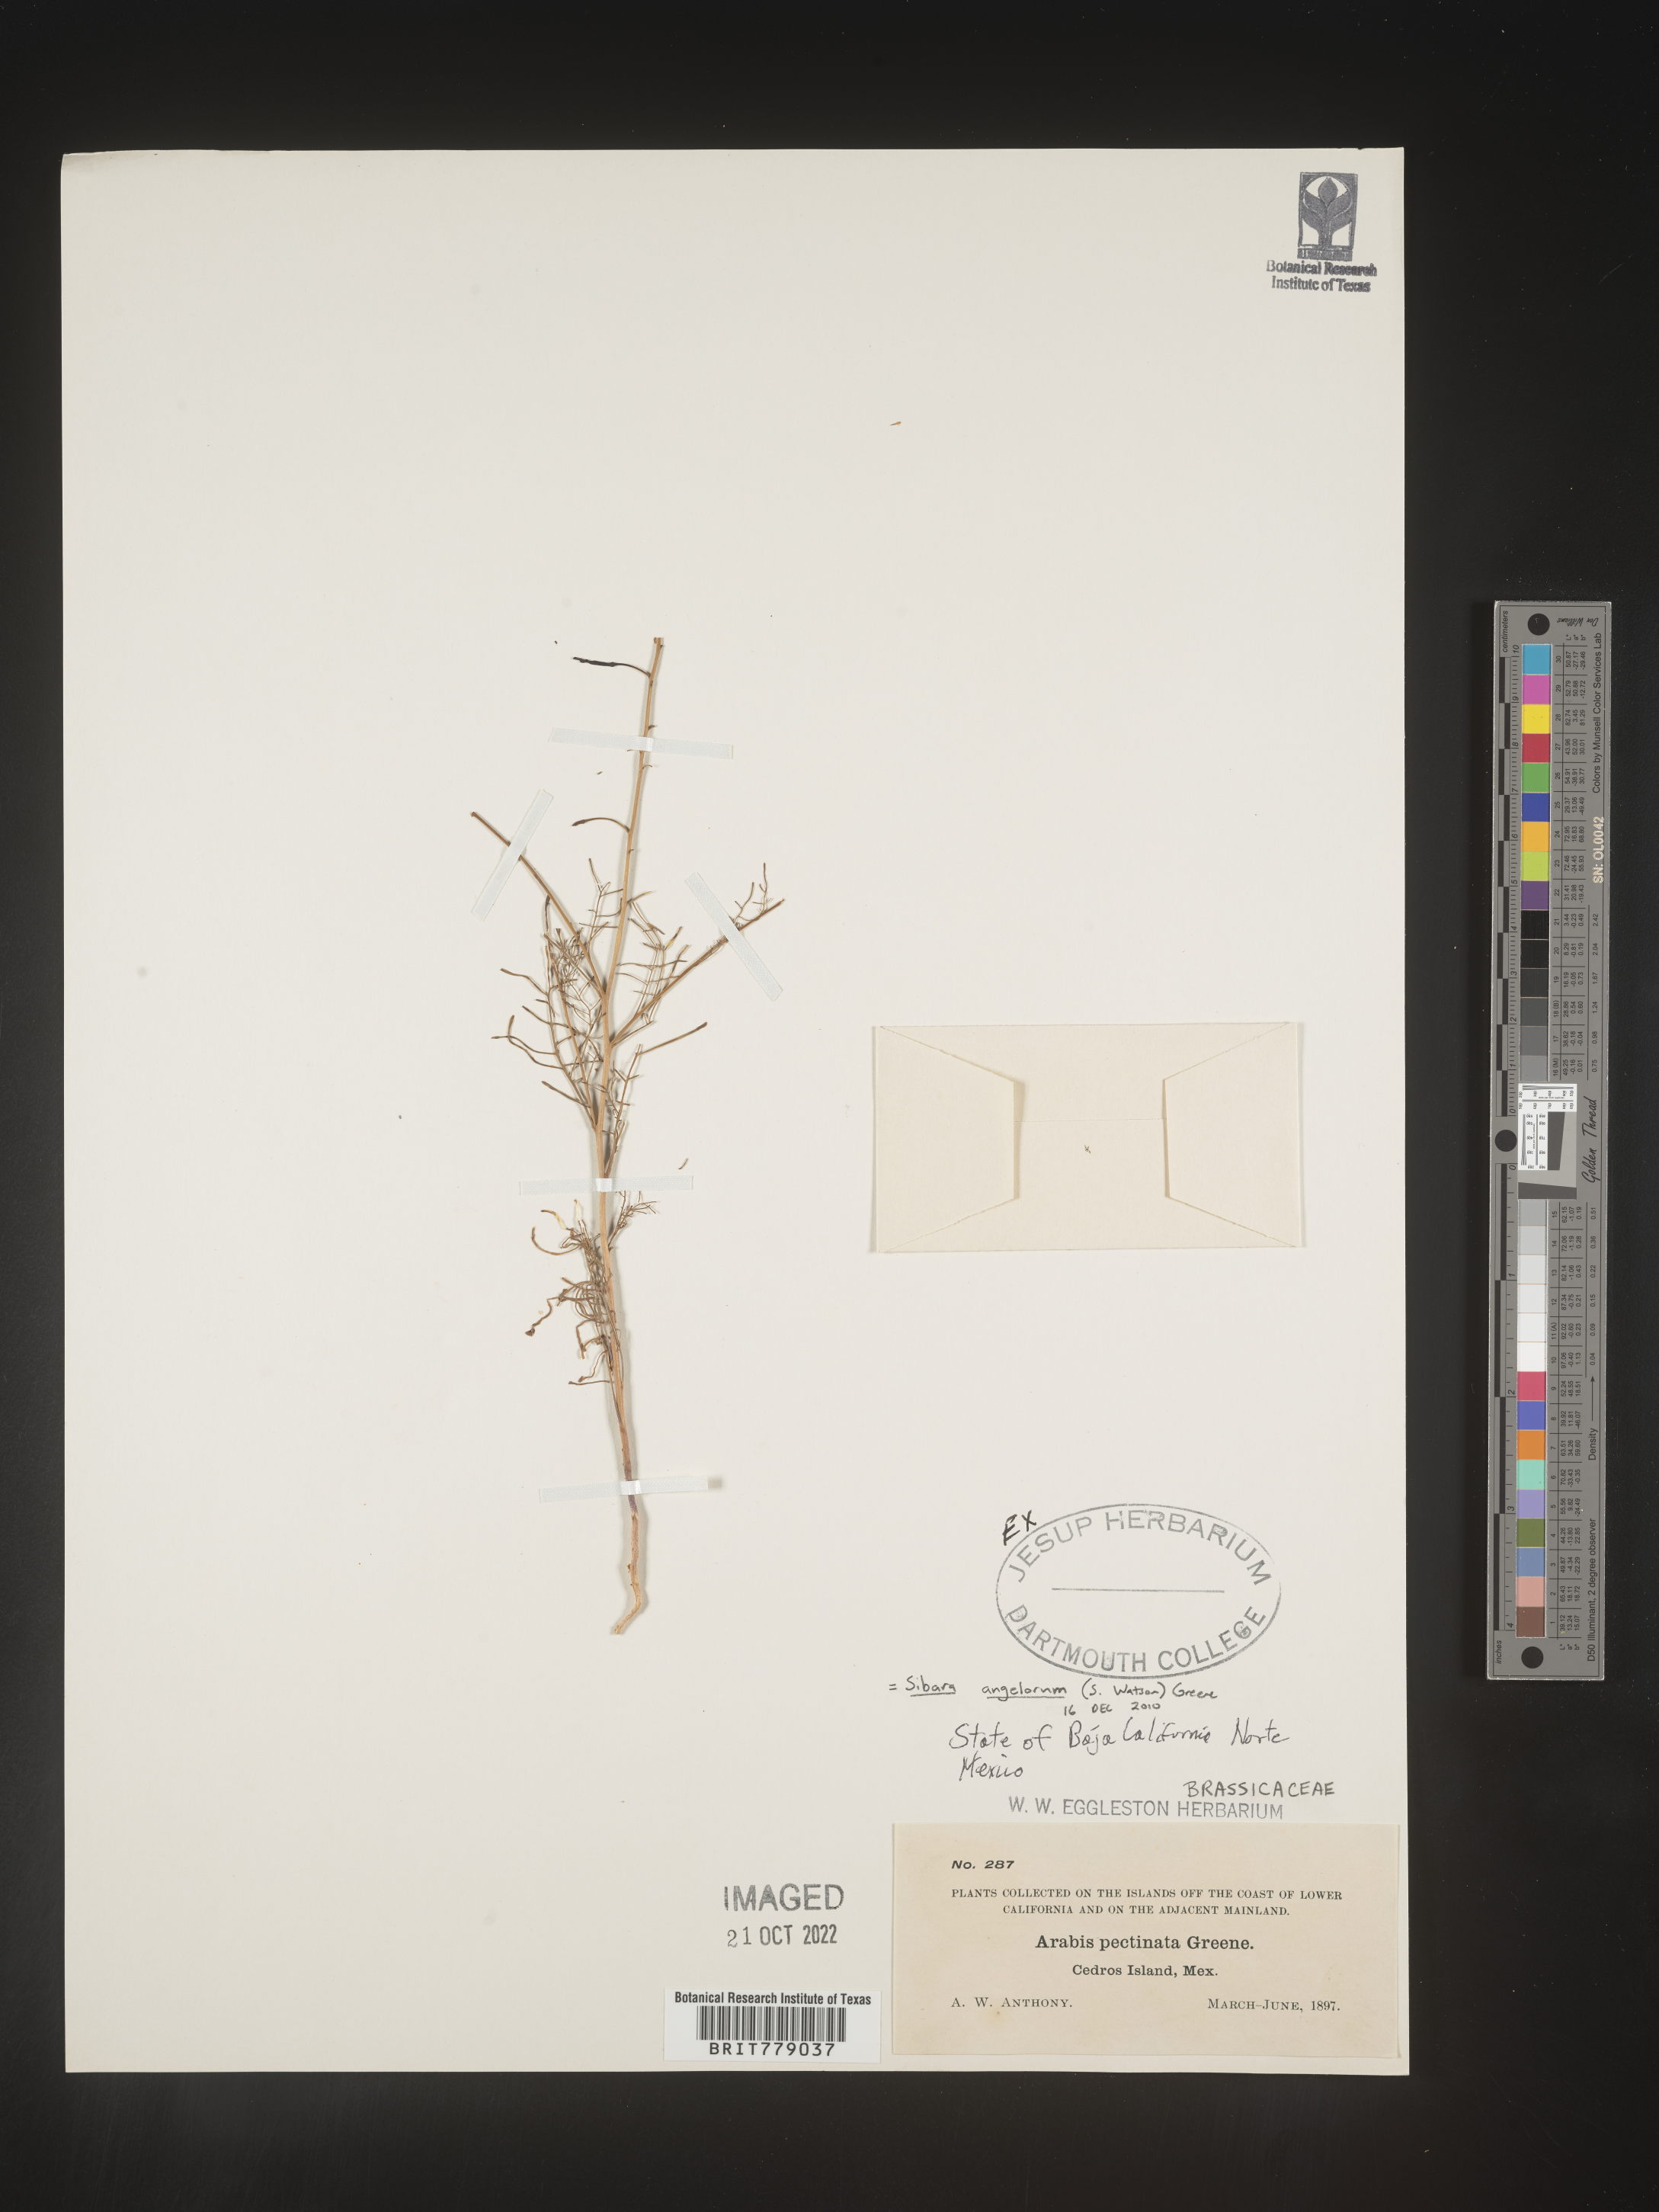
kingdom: Plantae
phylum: Tracheophyta
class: Magnoliopsida
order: Brassicales
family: Brassicaceae
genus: Sibara
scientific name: Sibara
